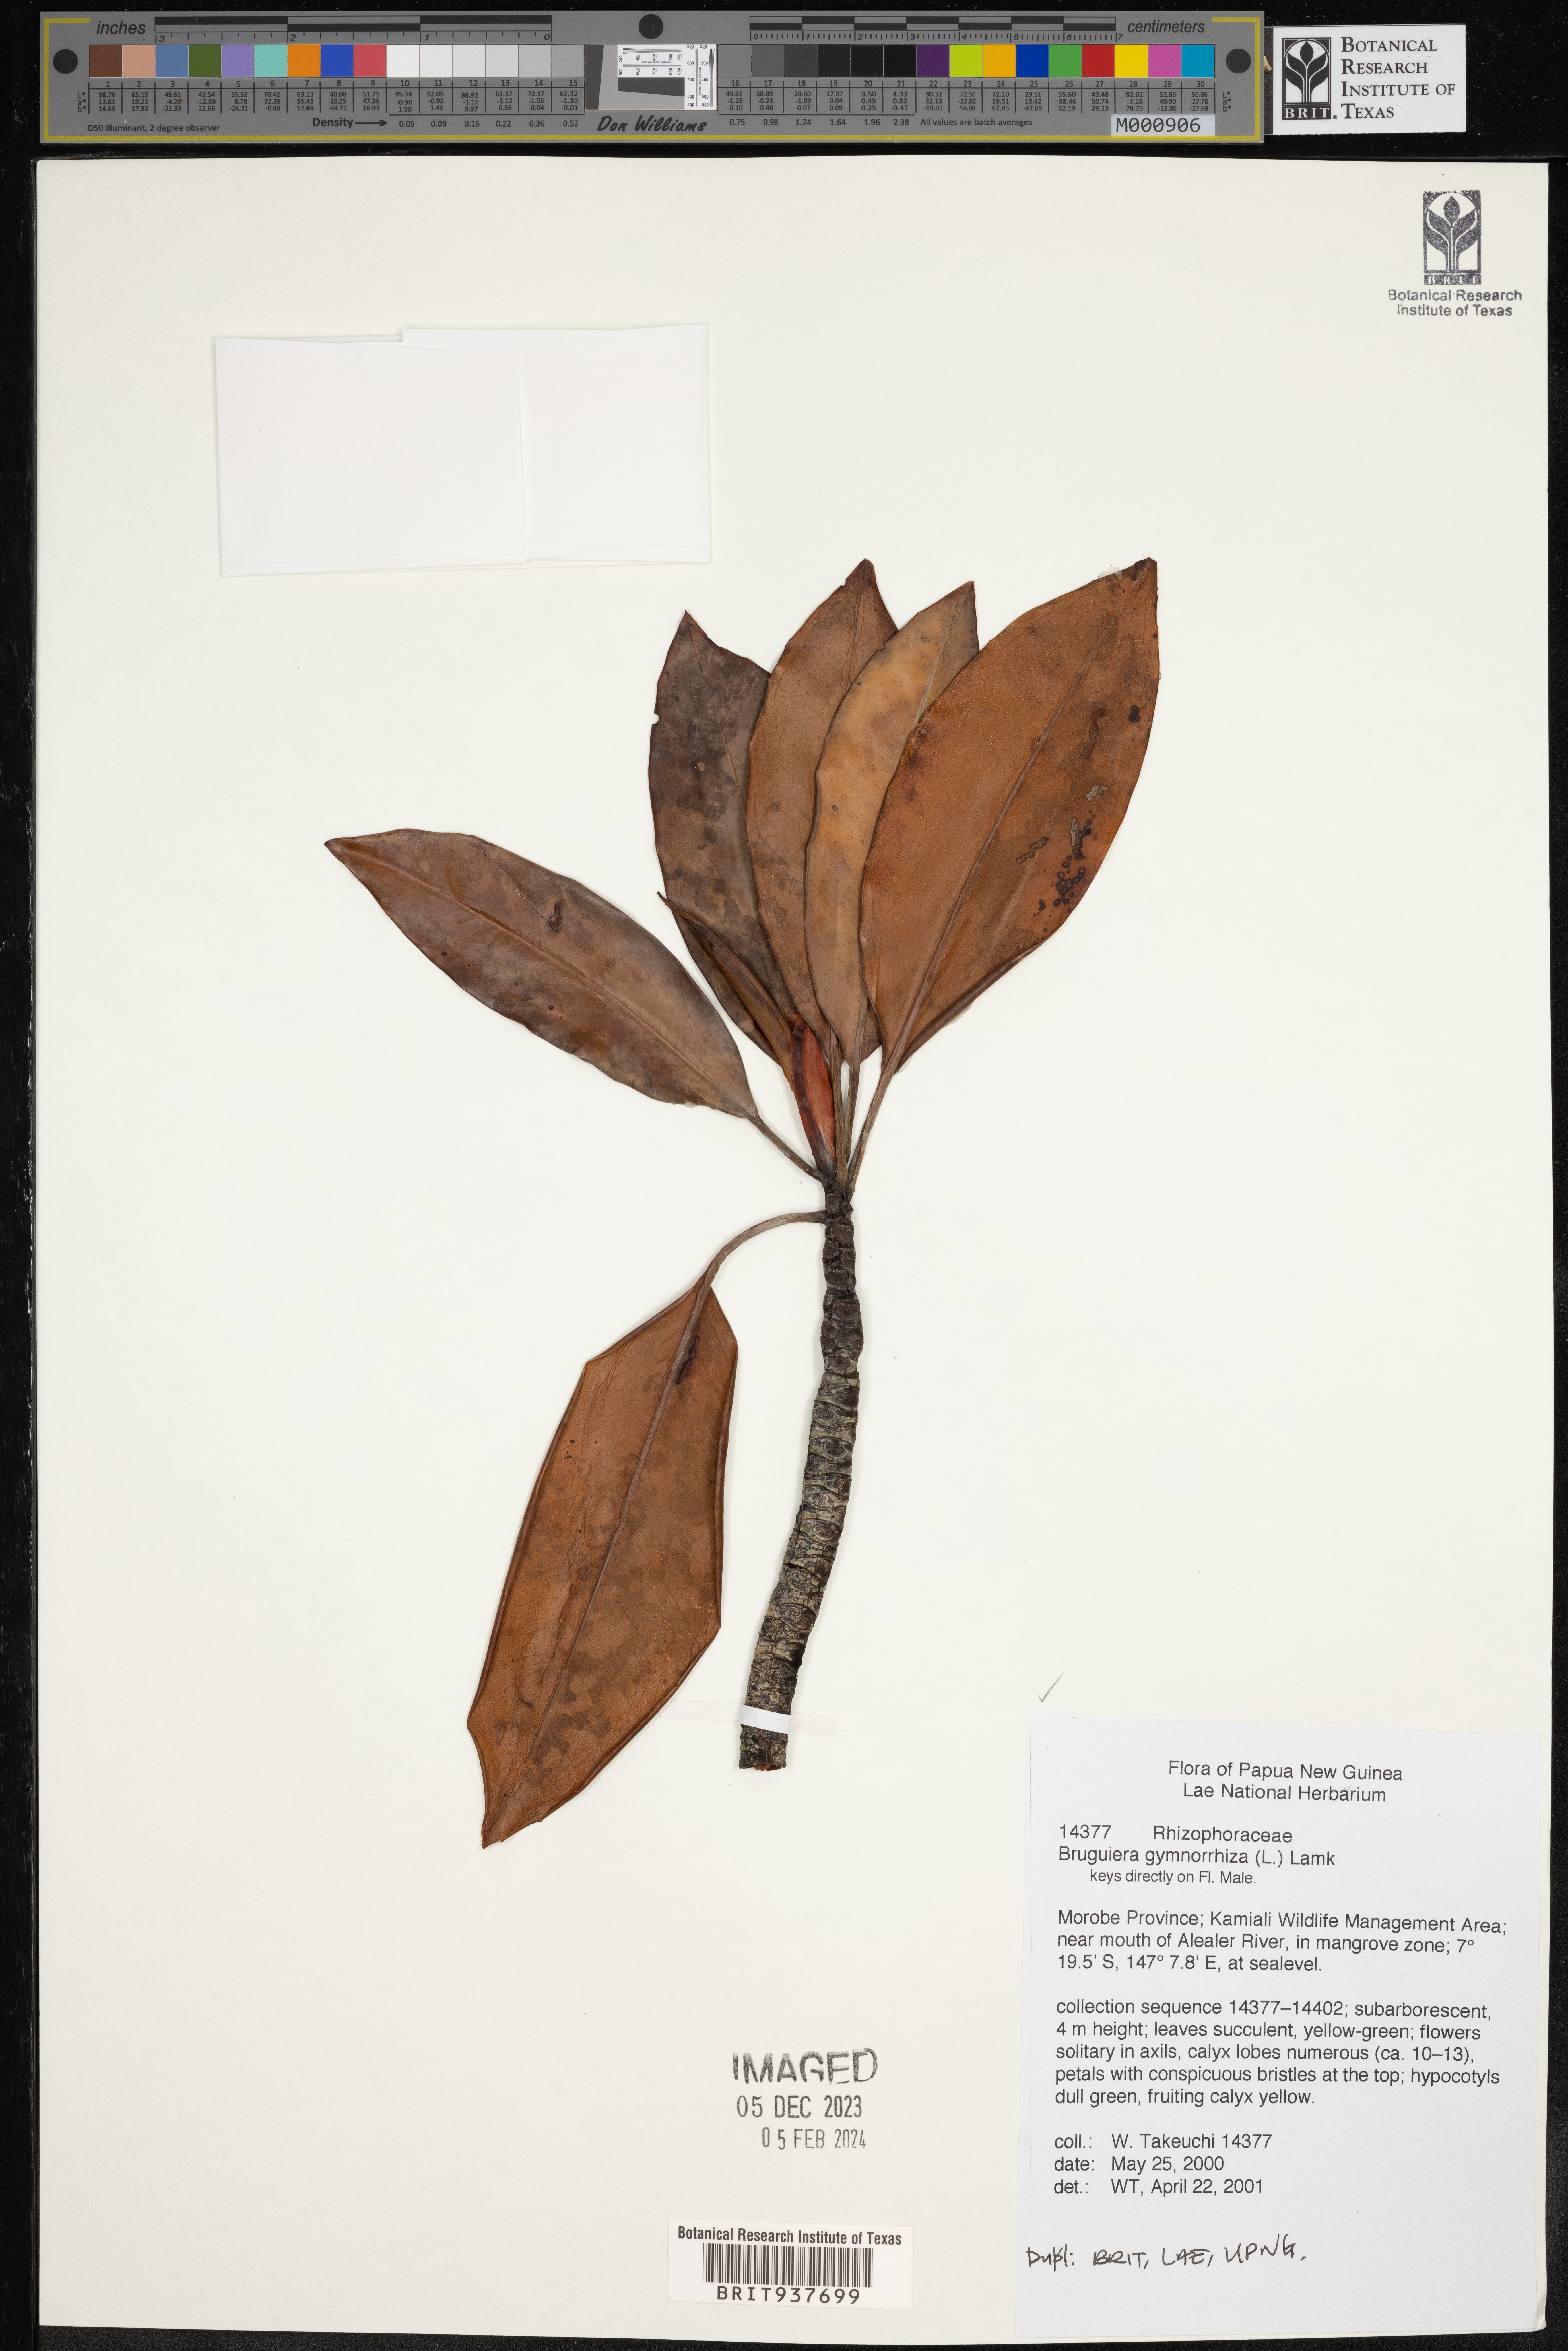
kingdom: Plantae
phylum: Tracheophyta
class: Magnoliopsida
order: Malpighiales
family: Rhizophoraceae
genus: Bruguiera
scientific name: Bruguiera gymnorhiza
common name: Oriental mangrove
